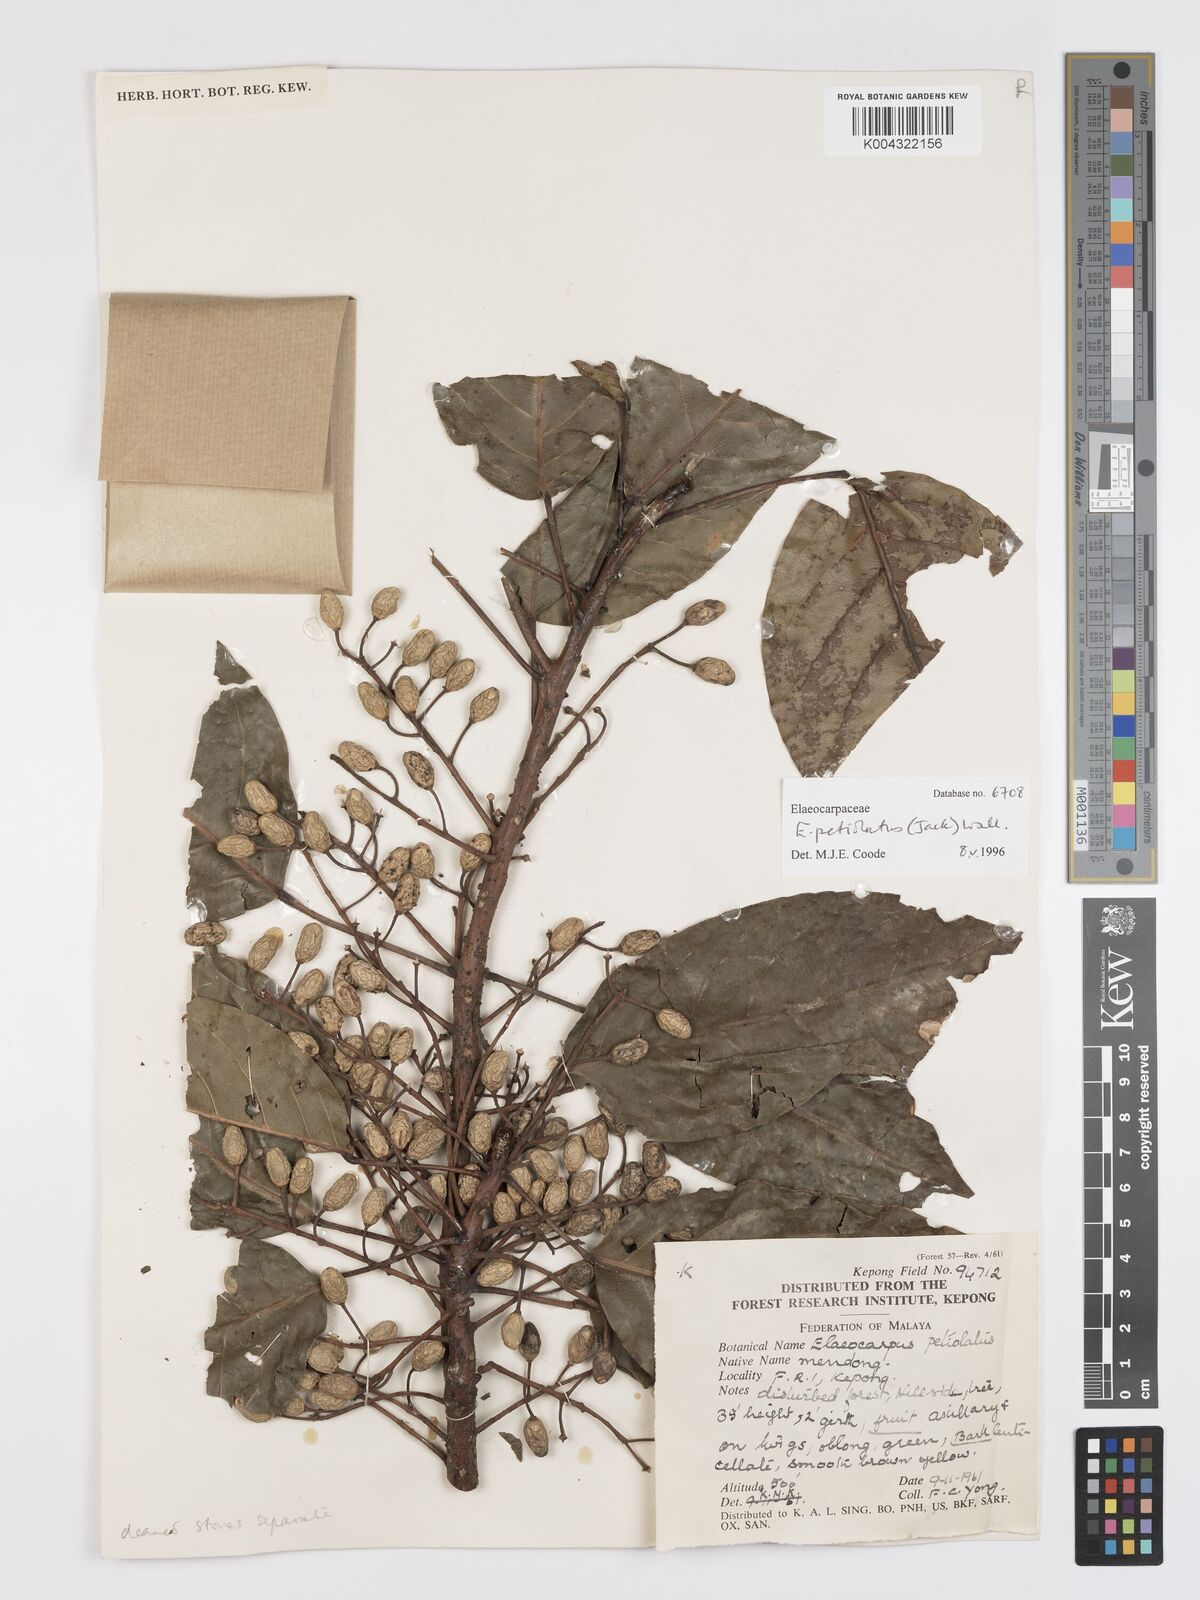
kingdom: Plantae
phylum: Tracheophyta
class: Magnoliopsida
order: Oxalidales
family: Elaeocarpaceae
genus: Elaeocarpus
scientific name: Elaeocarpus
